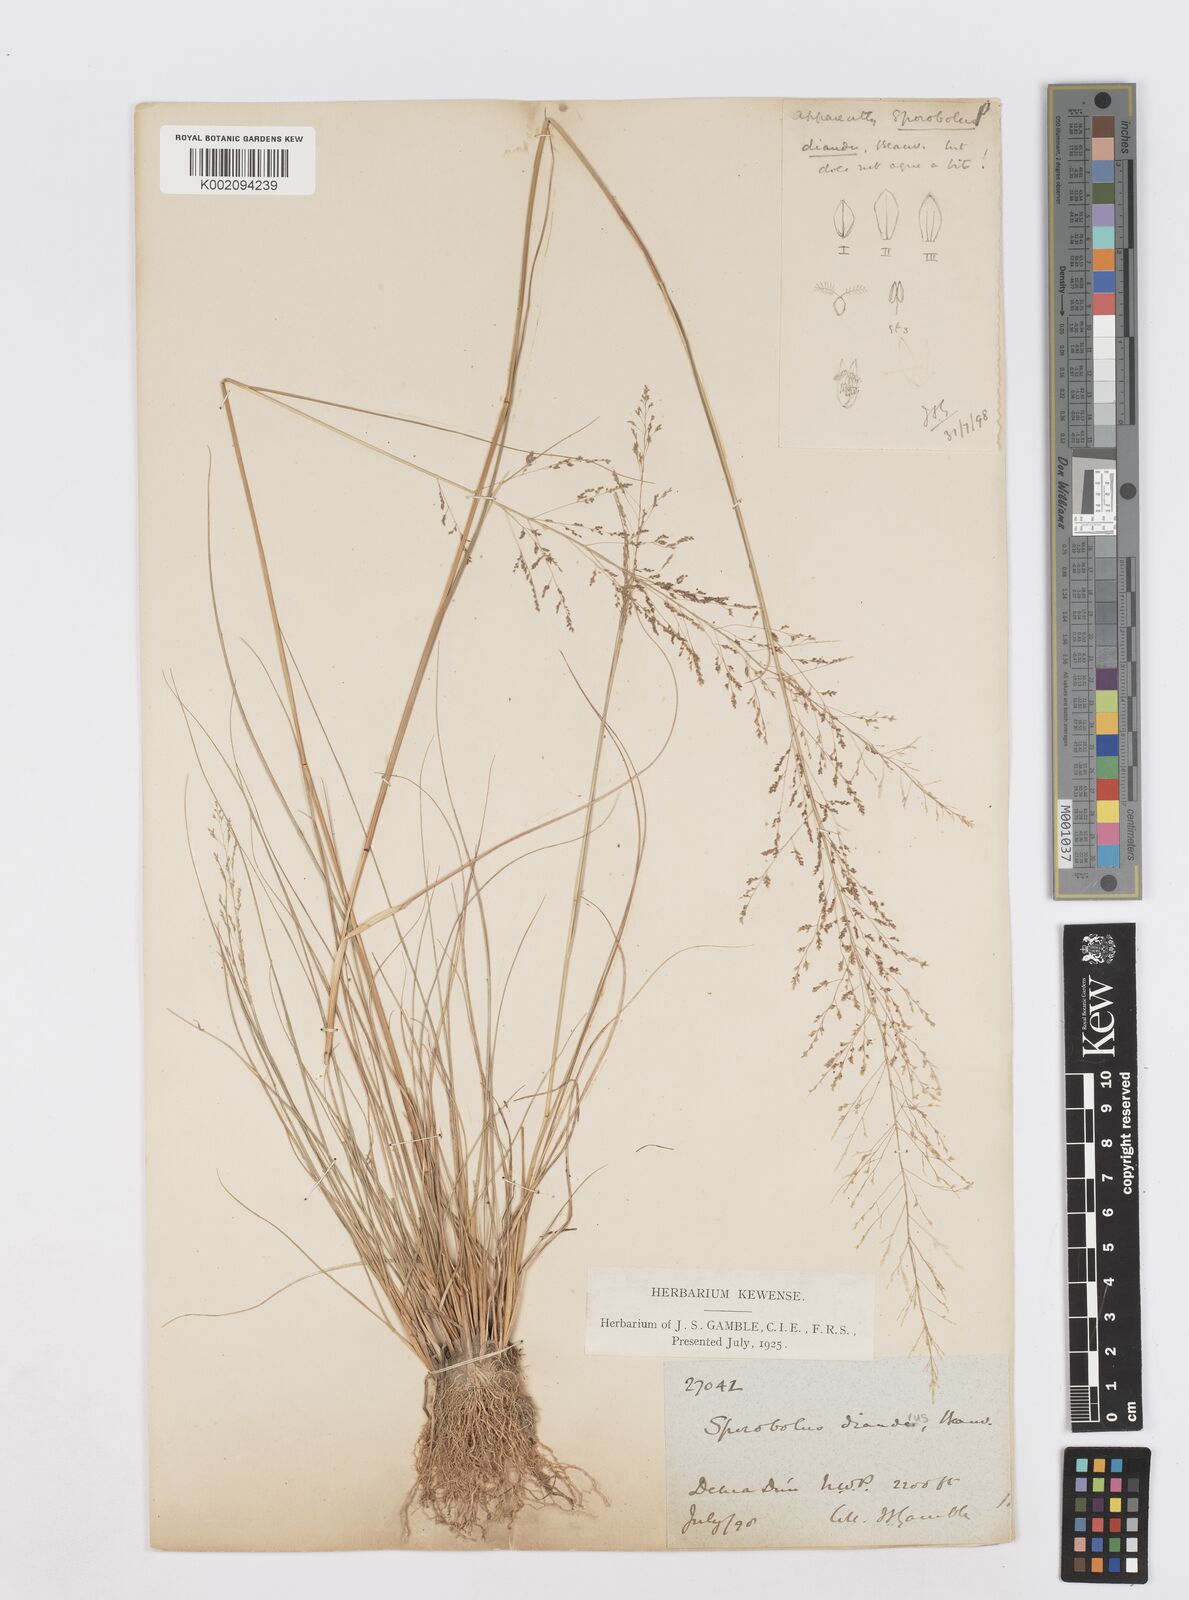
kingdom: Plantae
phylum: Tracheophyta
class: Liliopsida
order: Poales
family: Poaceae
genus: Sporobolus
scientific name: Sporobolus
